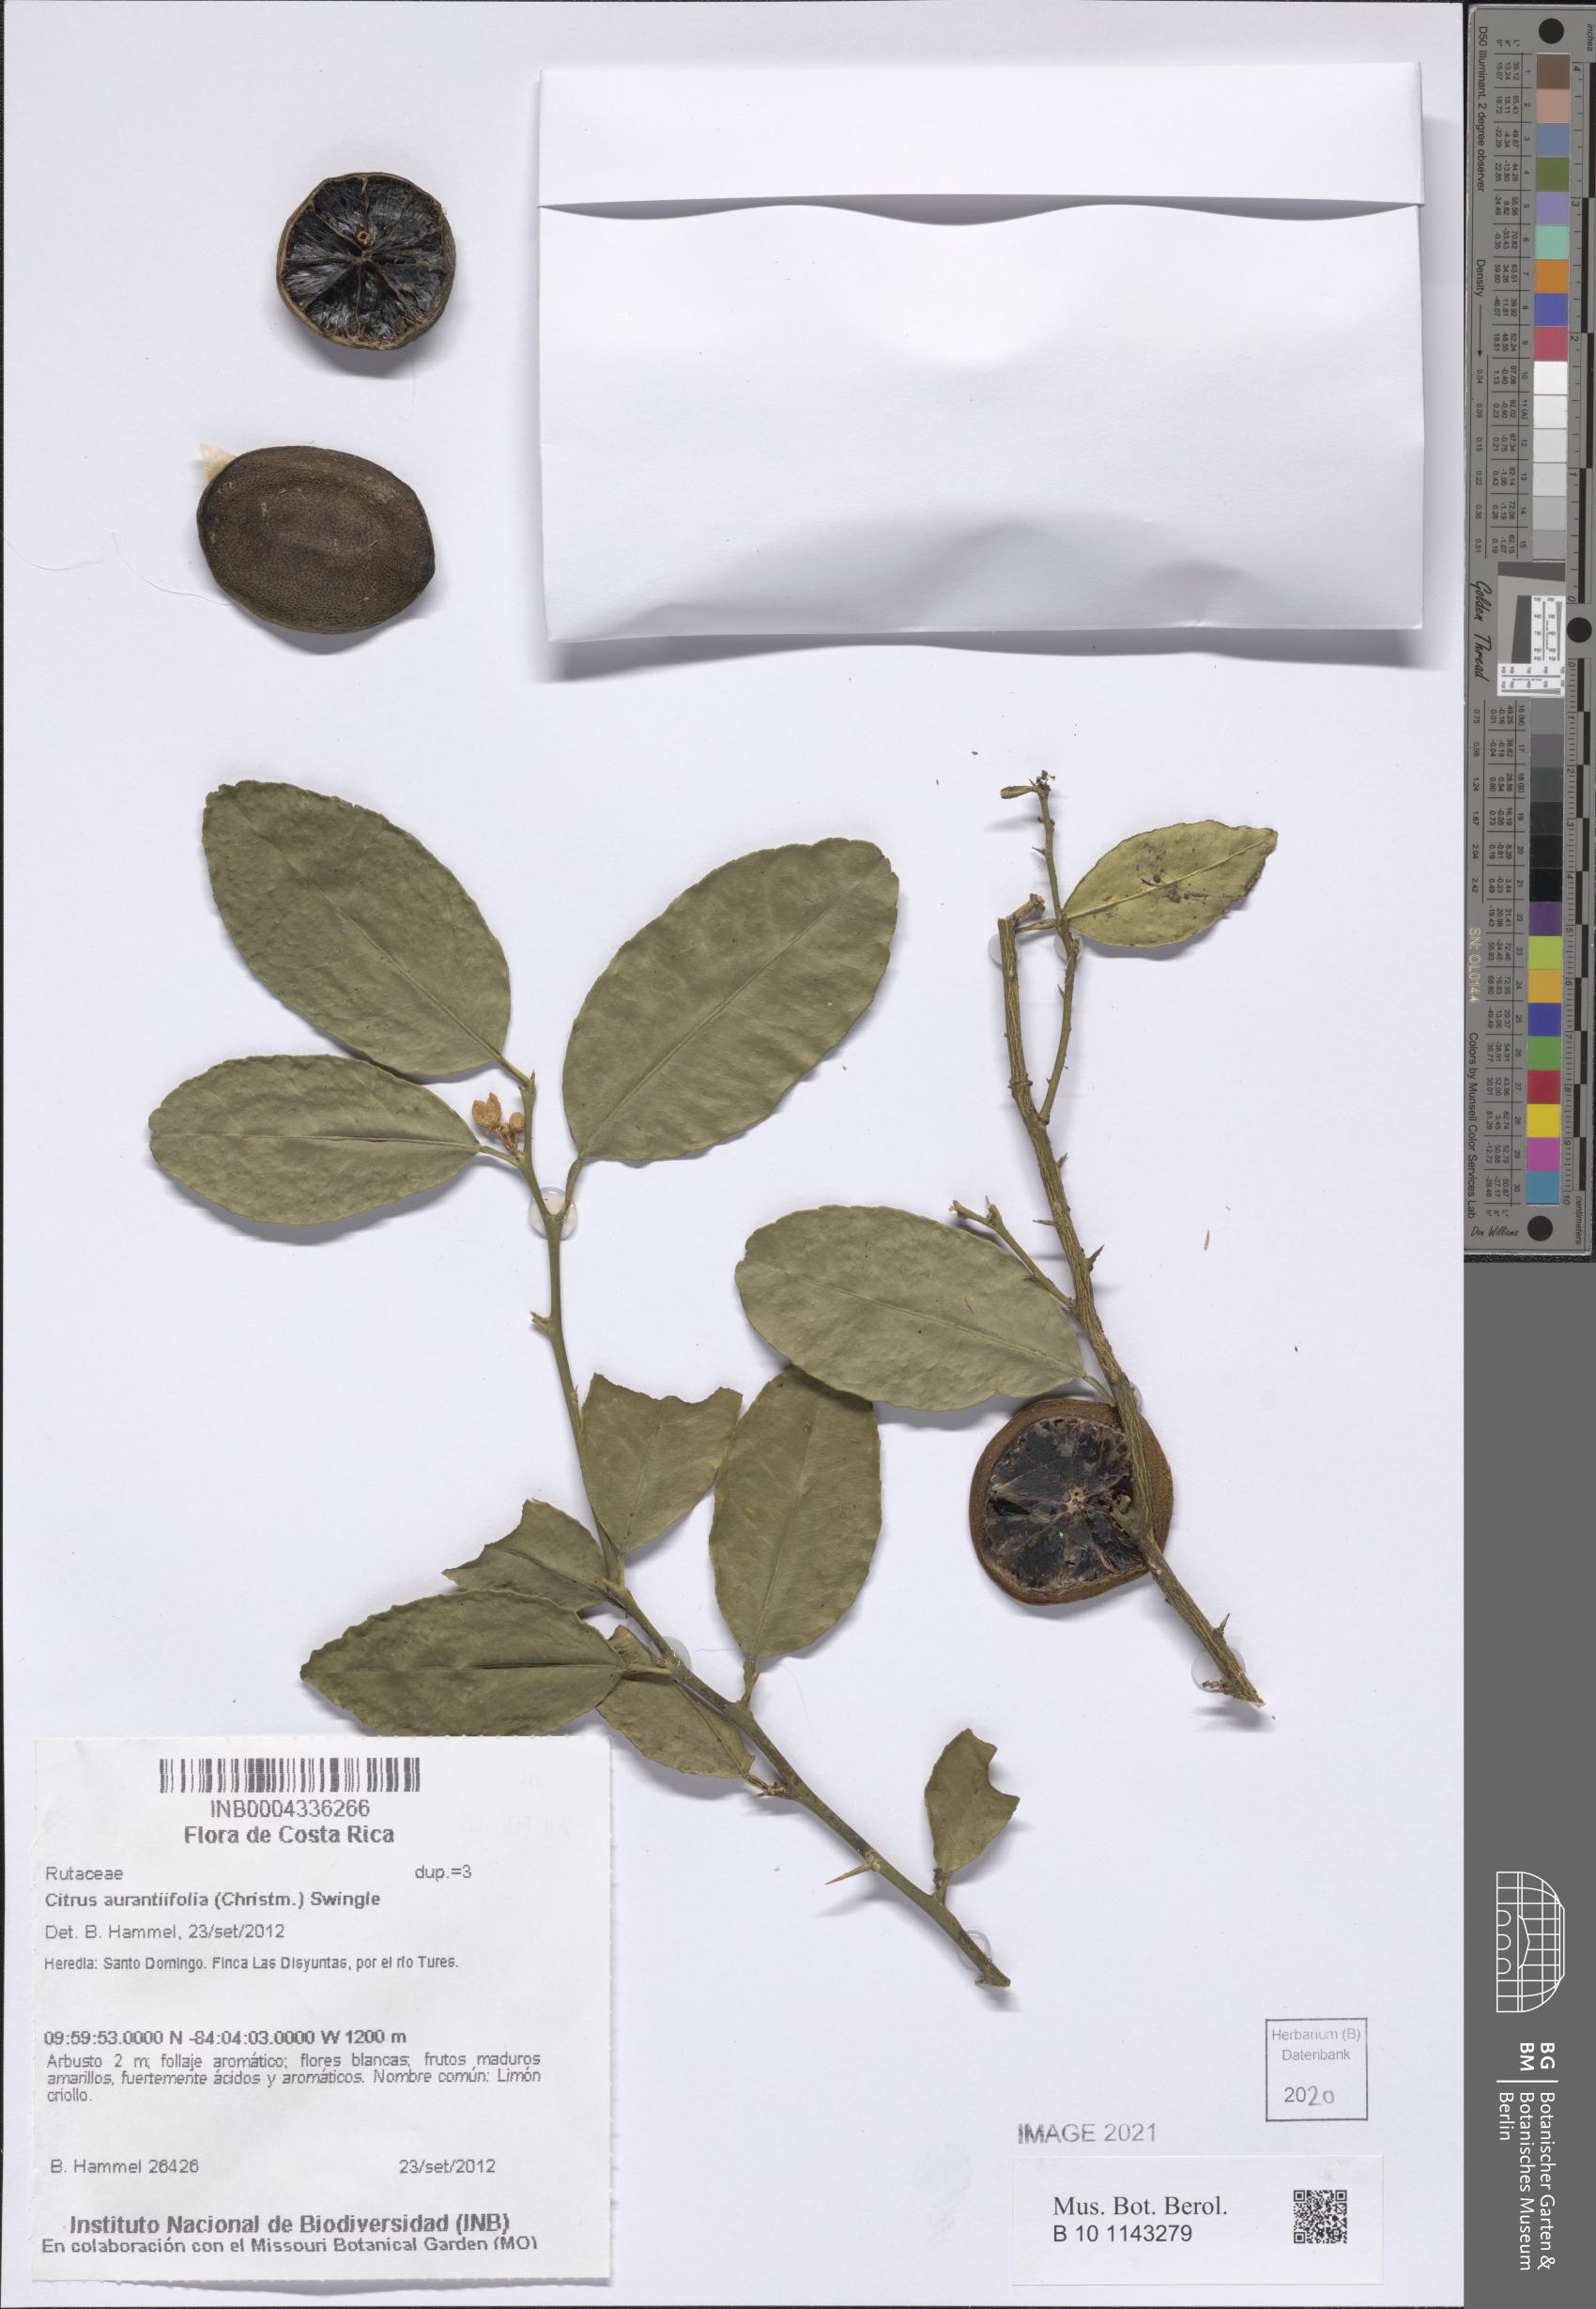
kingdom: Plantae
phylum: Tracheophyta
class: Magnoliopsida
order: Sapindales
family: Rutaceae
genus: Citrus
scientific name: Citrus aurantiifolia
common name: Key lime
